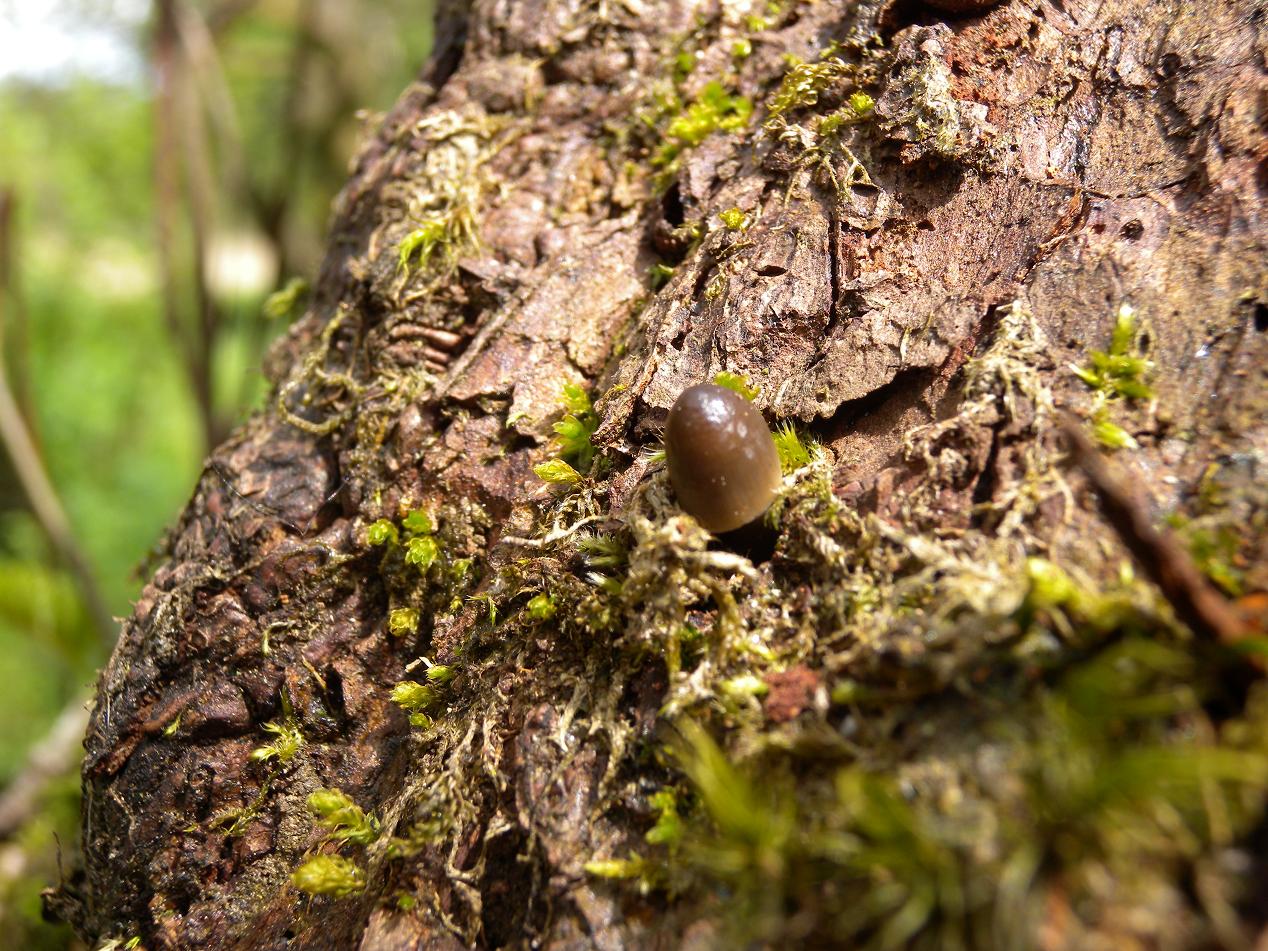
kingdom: Fungi
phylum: Basidiomycota
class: Agaricomycetes
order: Agaricales
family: Mycenaceae
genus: Mycena
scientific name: Mycena galericulata
